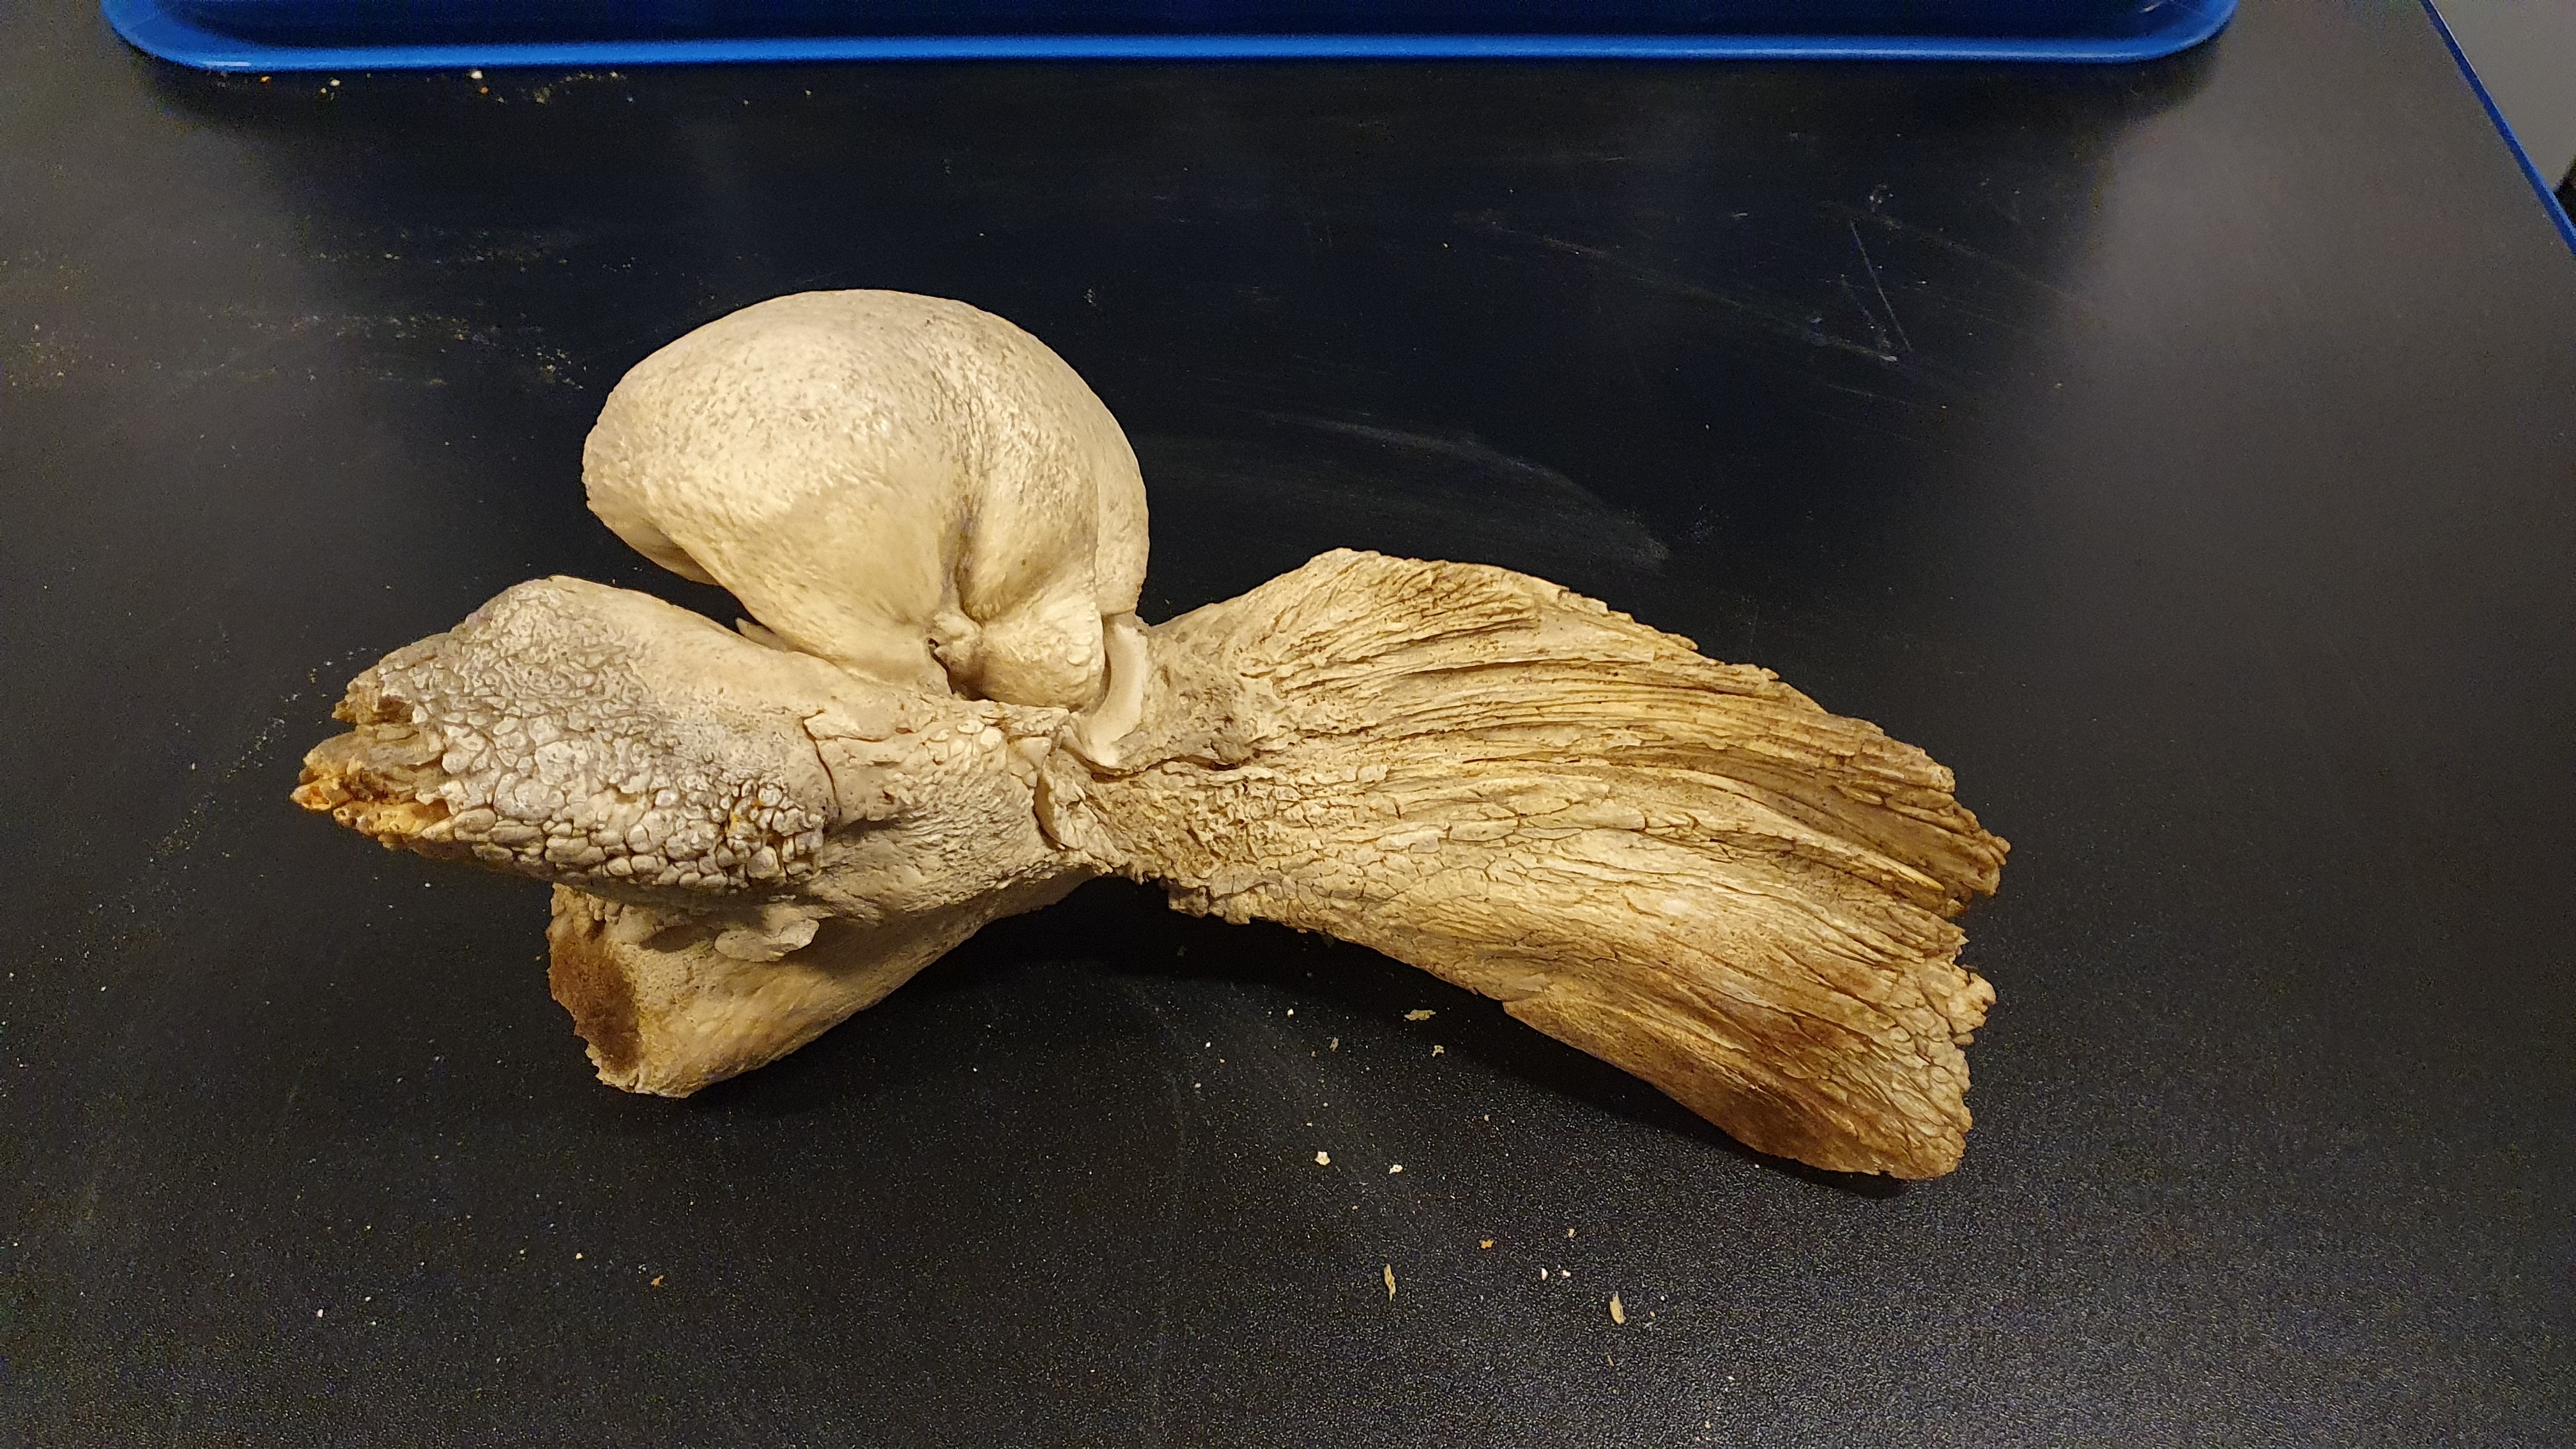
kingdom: Animalia
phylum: Chordata
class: Mammalia
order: Cetacea
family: Balaenopteridae
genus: Megaptera
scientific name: Megaptera novaeangliae
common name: Humpback whale
